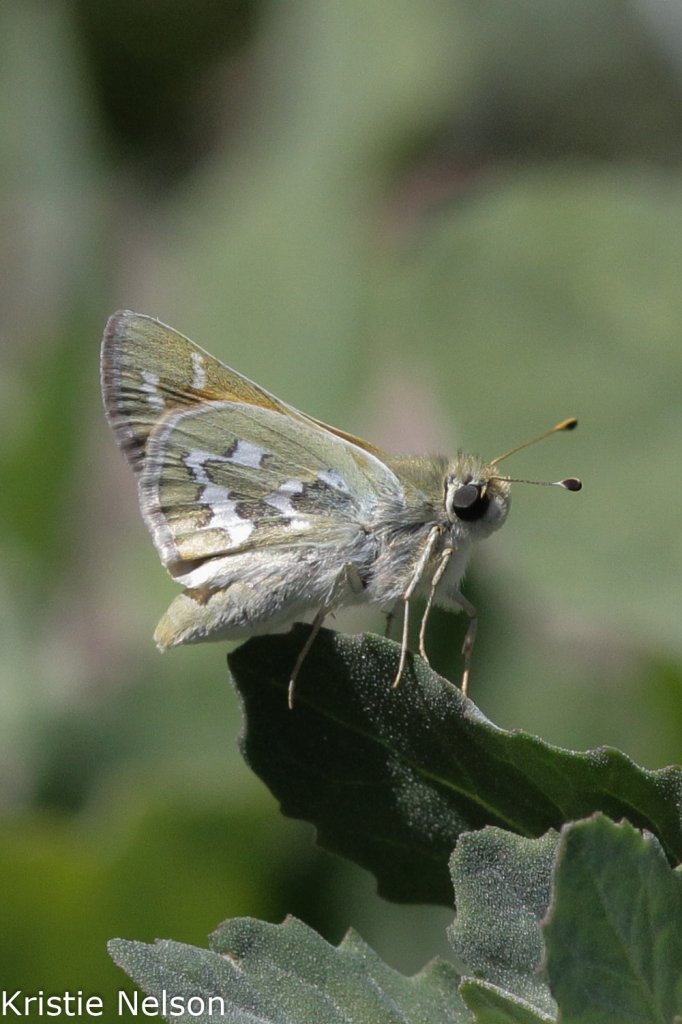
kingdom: Animalia
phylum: Arthropoda
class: Insecta
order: Lepidoptera
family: Hesperiidae
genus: Hesperia
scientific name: Hesperia comma
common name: Western Branded Skipper
